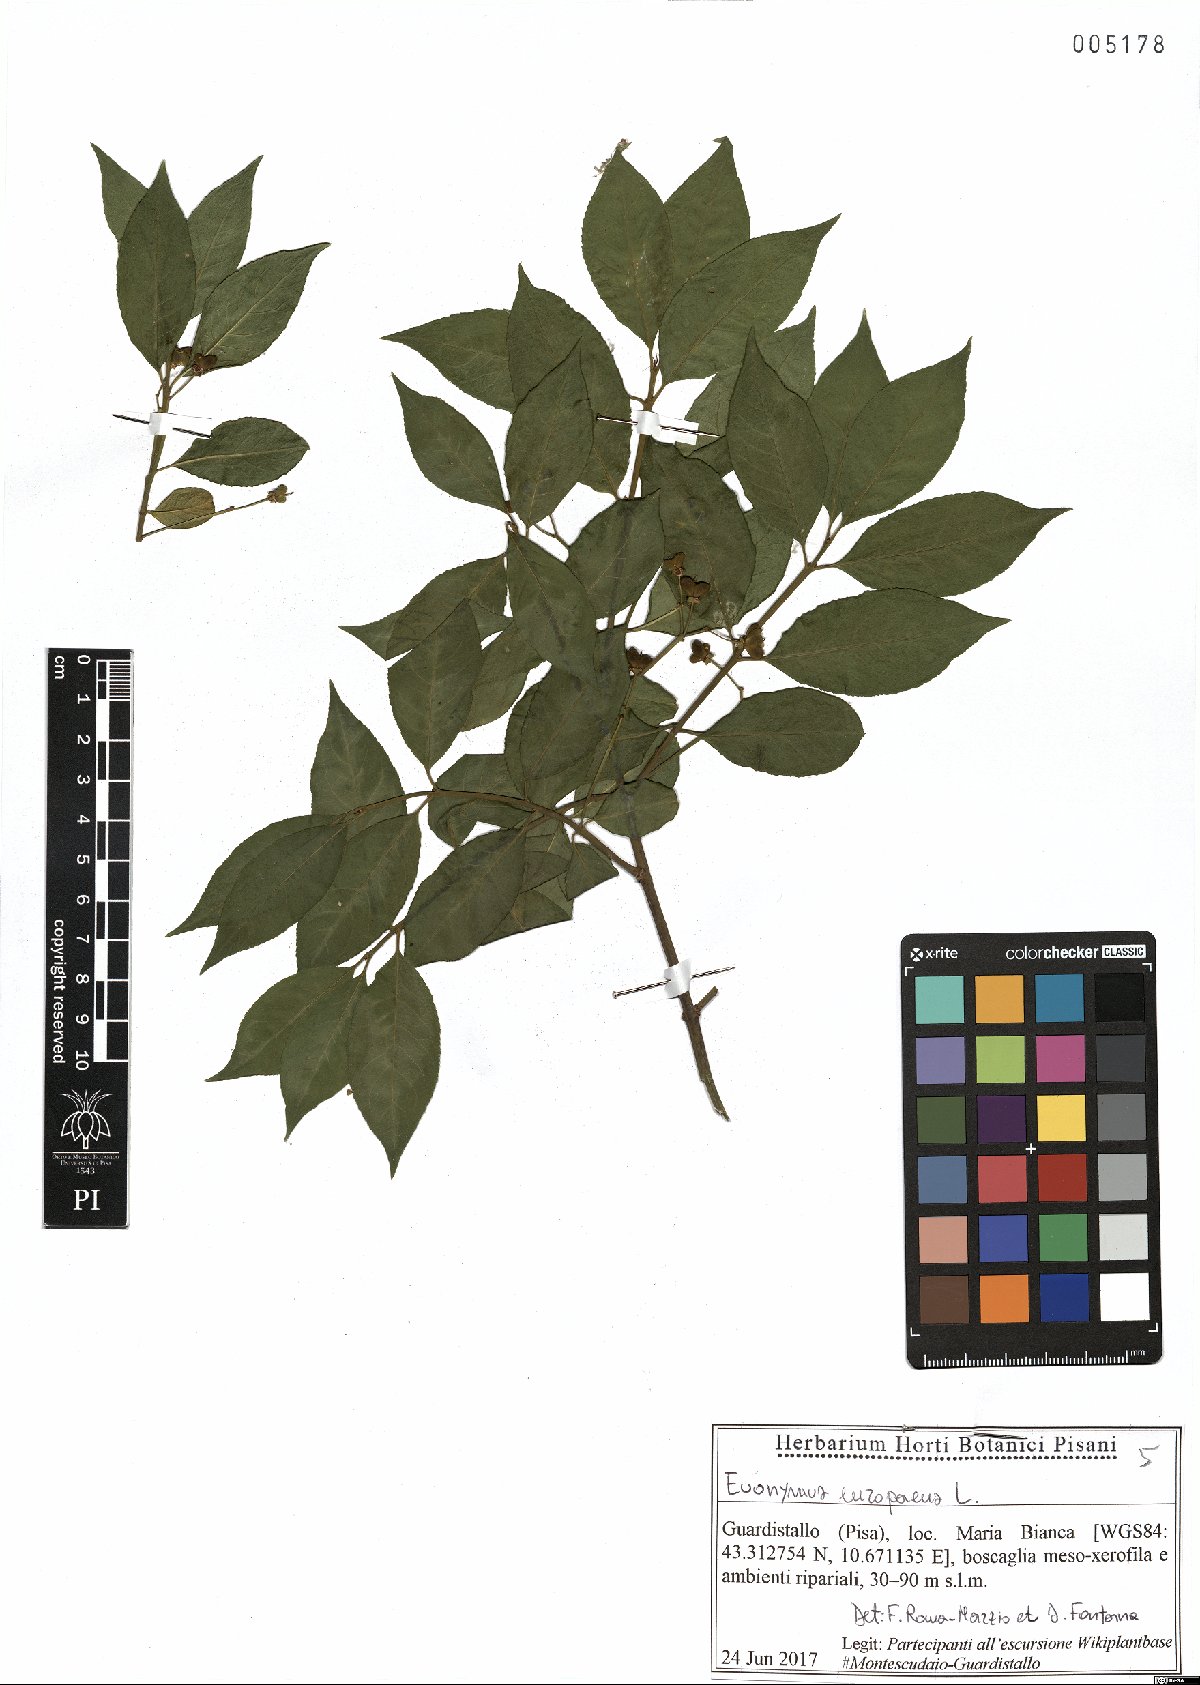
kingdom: Plantae
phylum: Tracheophyta
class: Magnoliopsida
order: Celastrales
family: Celastraceae
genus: Euonymus
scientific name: Euonymus europaeus
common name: Spindle
